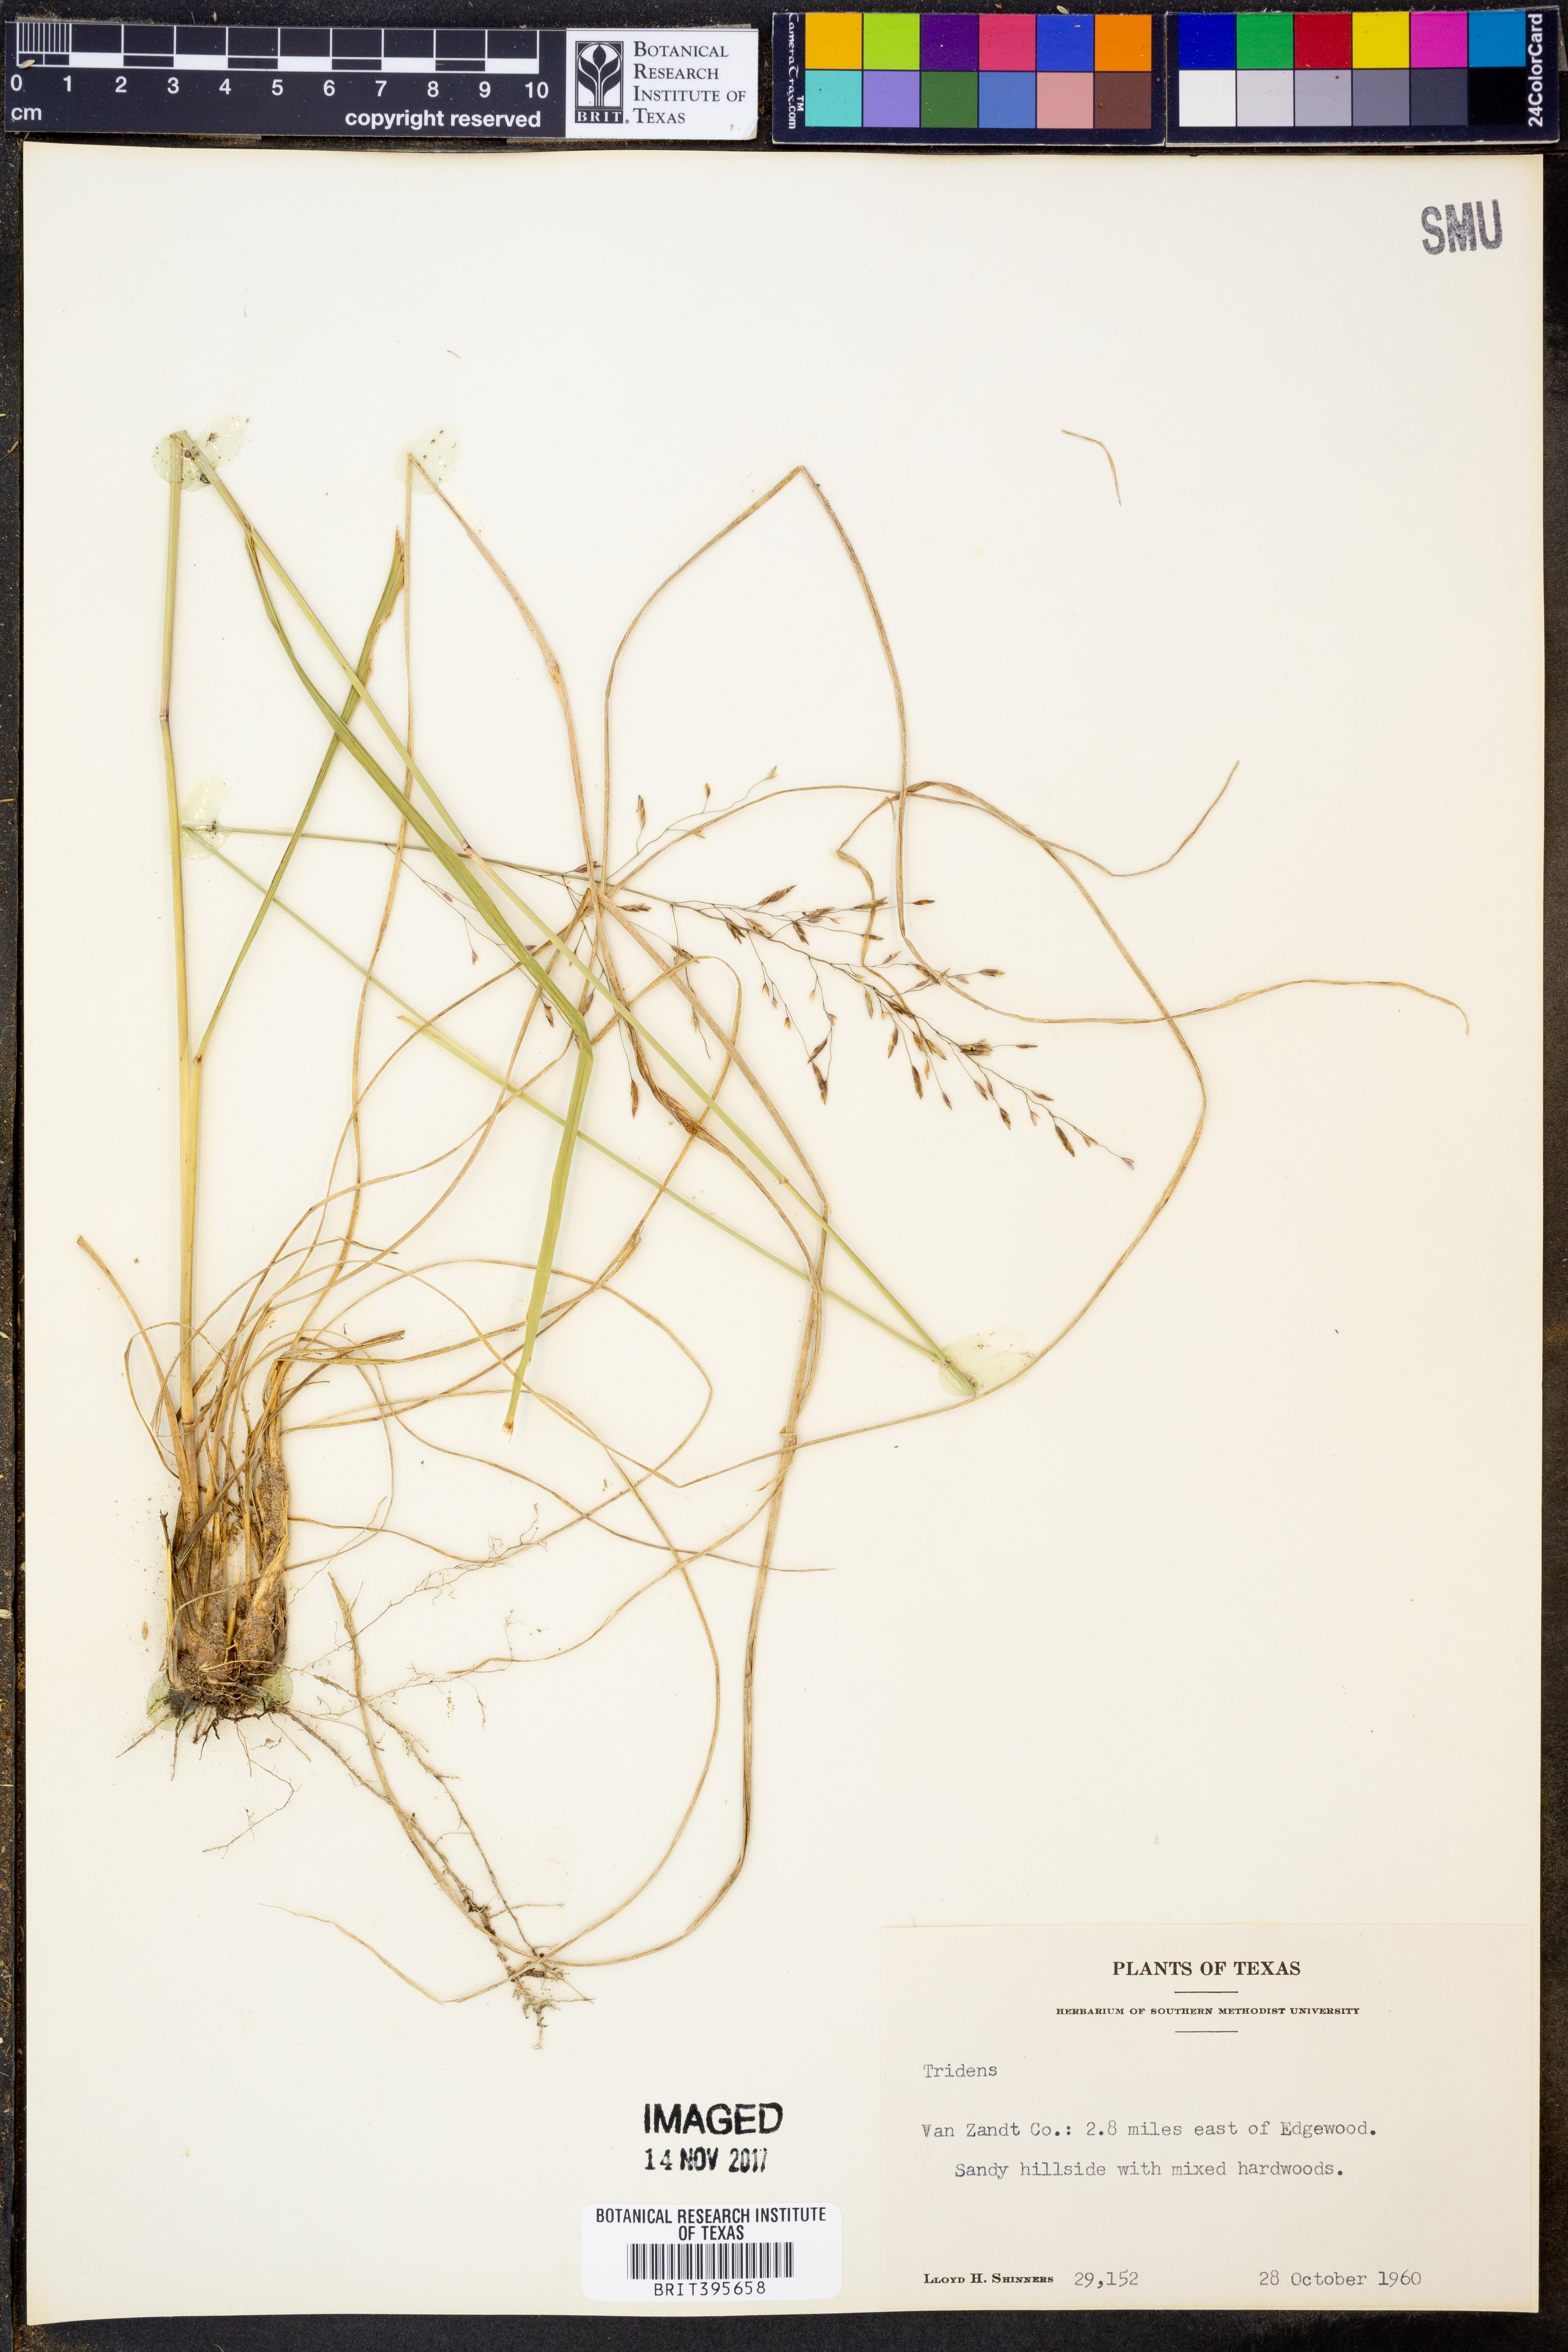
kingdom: Plantae
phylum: Tracheophyta
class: Liliopsida
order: Poales
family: Poaceae
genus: Tridens
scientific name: Tridens
